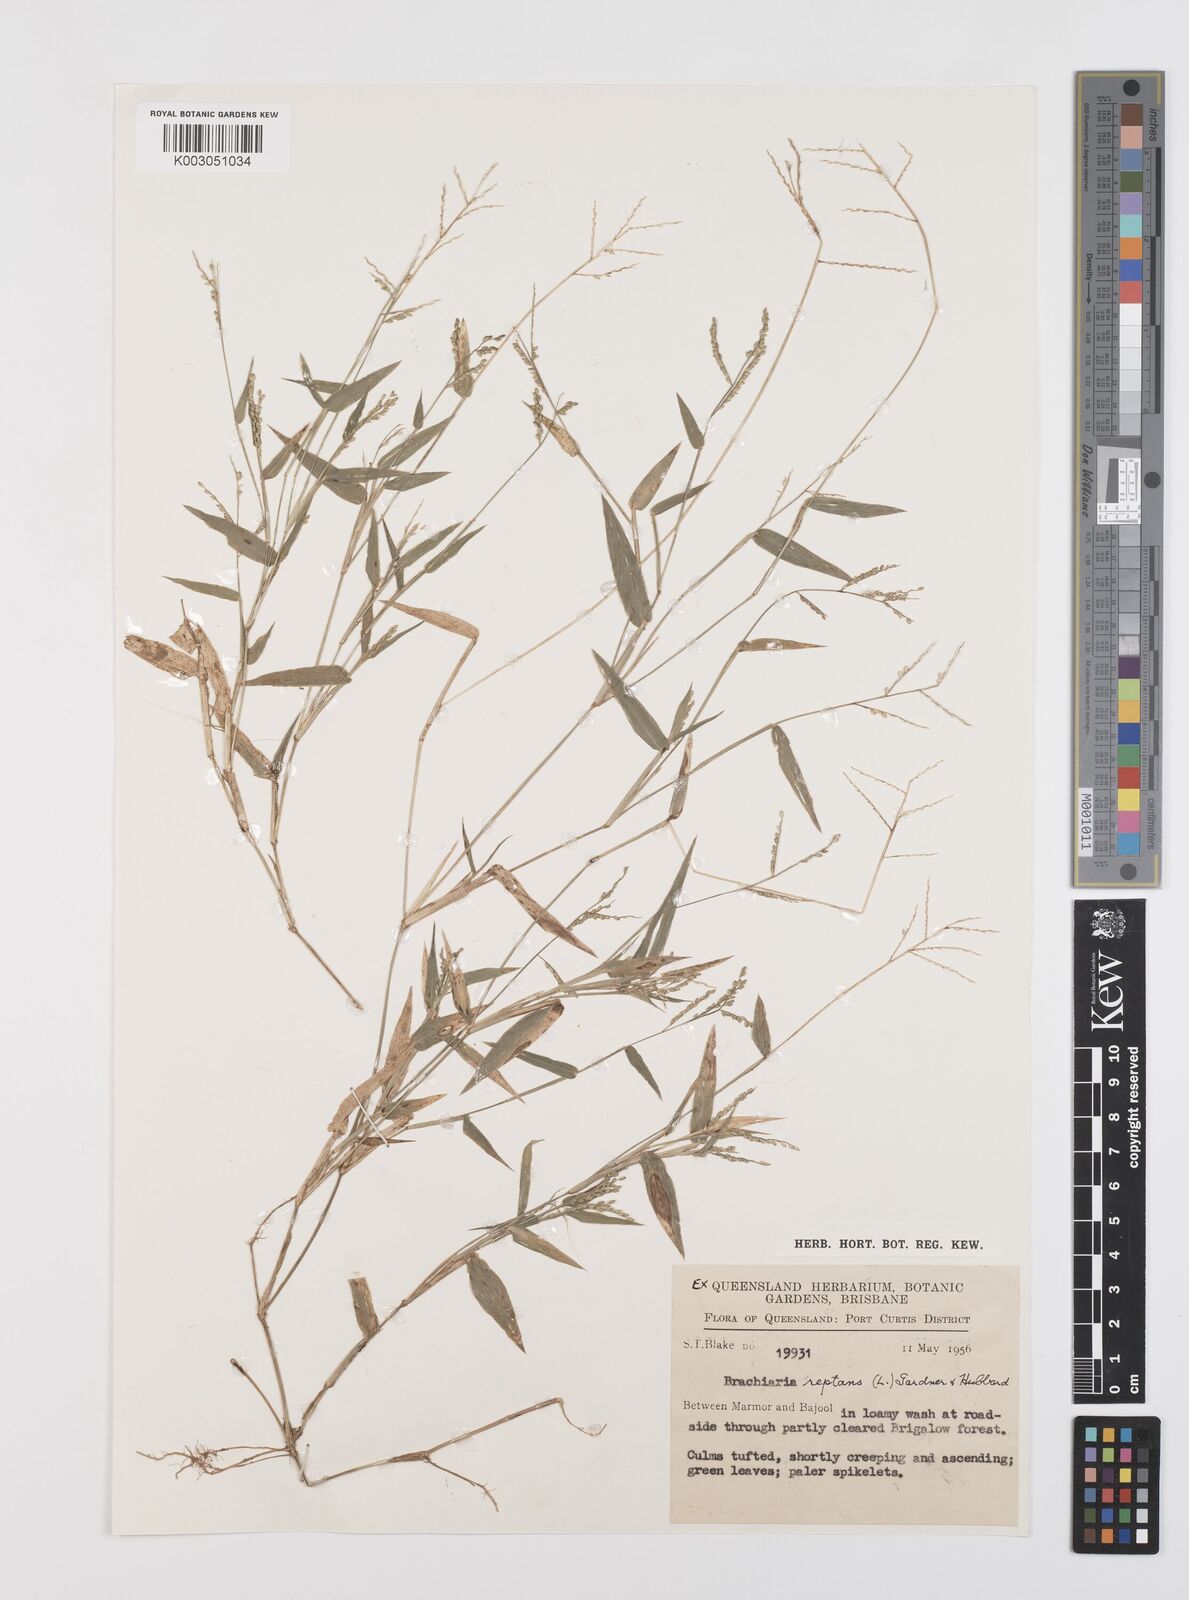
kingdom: Plantae
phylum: Tracheophyta
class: Liliopsida
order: Poales
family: Poaceae
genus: Urochloa
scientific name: Urochloa reptans
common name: Sprawling signalgrass
